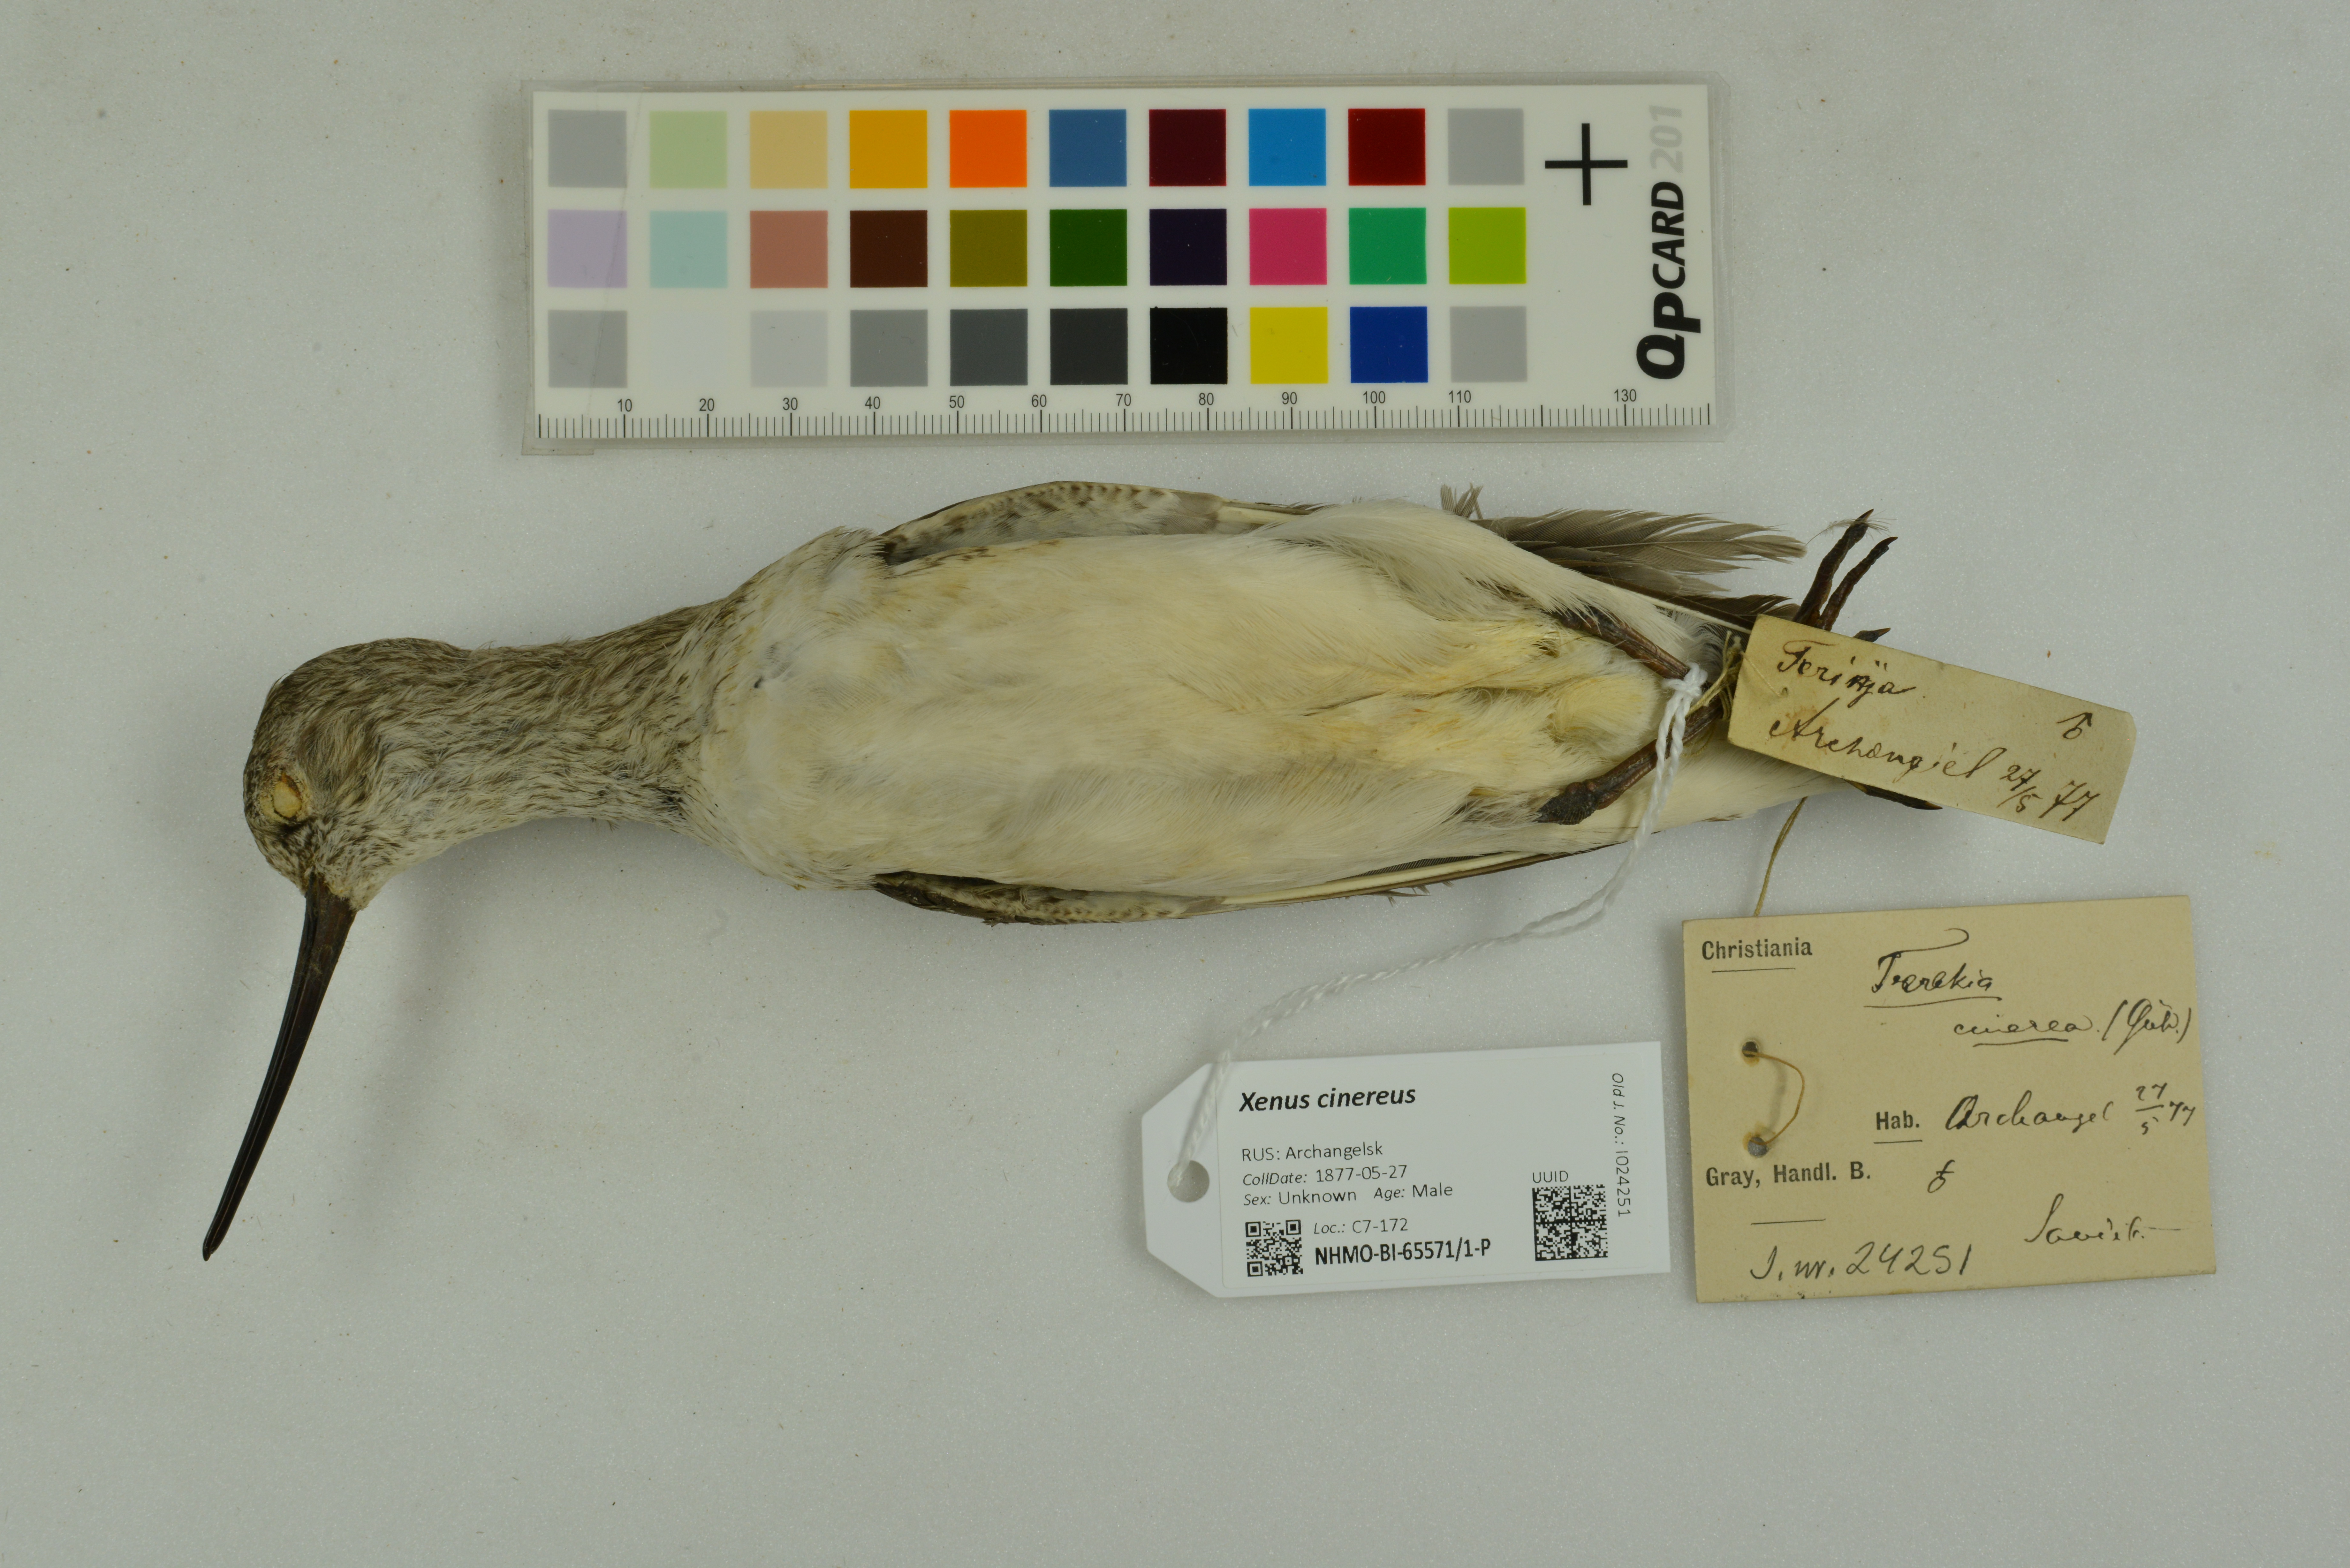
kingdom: Animalia
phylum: Chordata
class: Aves
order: Charadriiformes
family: Scolopacidae
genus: Xenus
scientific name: Xenus cinereus
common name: Terek sandpiper
